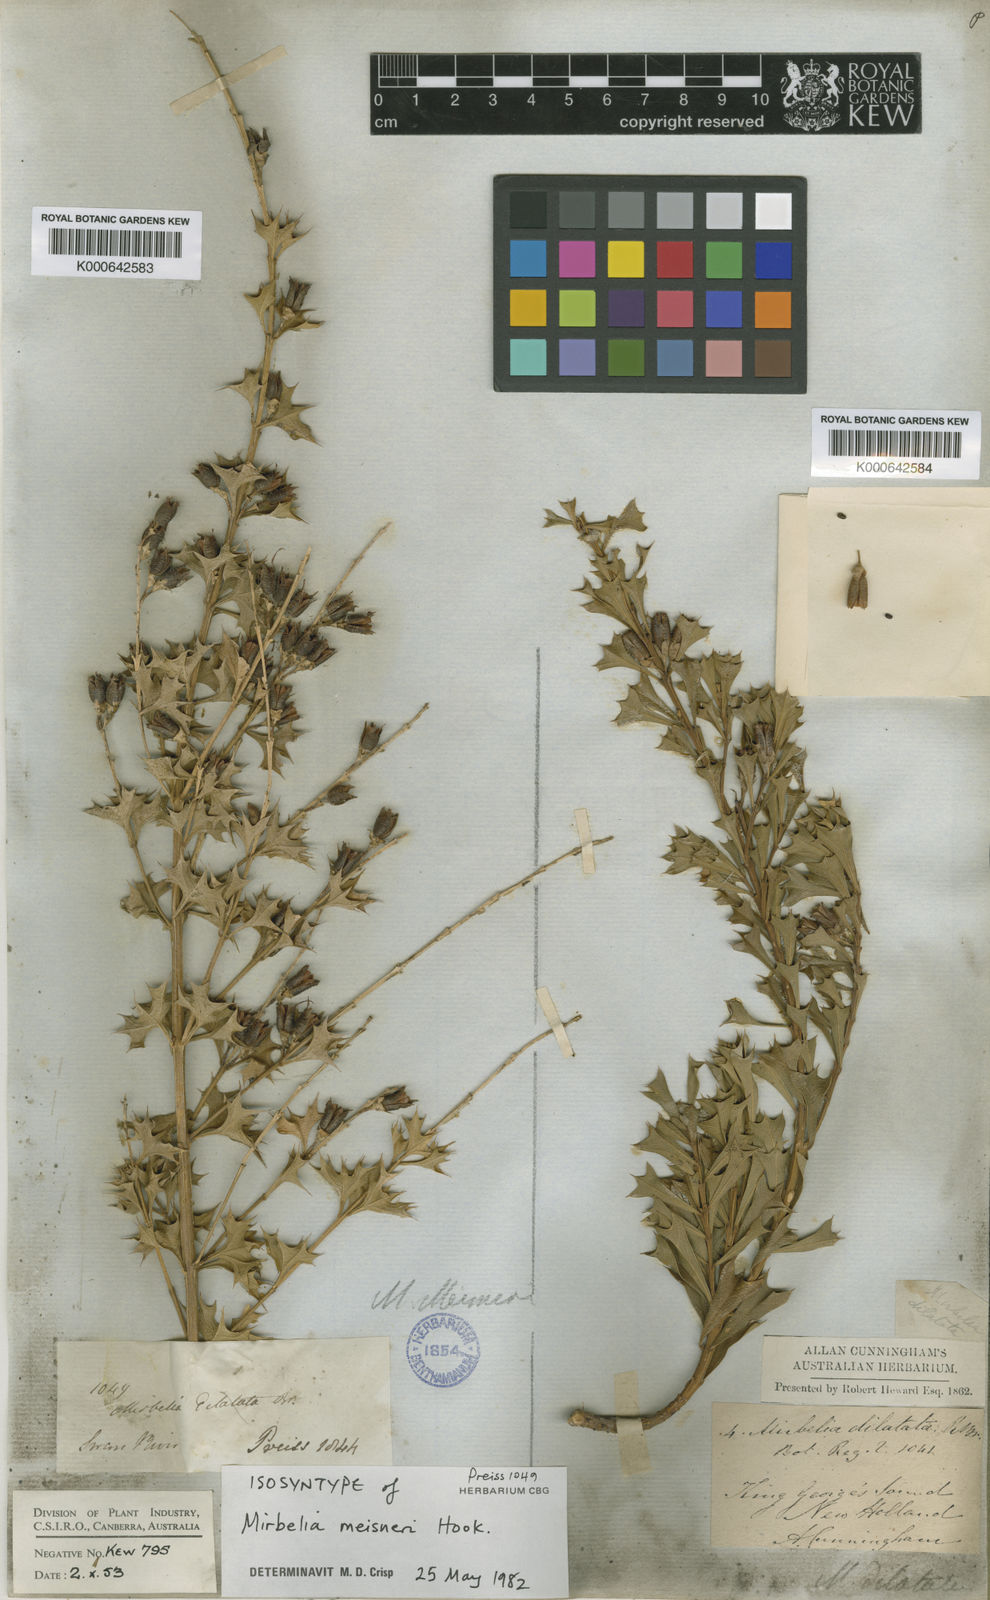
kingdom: Plantae
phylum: Tracheophyta
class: Magnoliopsida
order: Fabales
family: Fabaceae
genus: Mirbelia
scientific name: Mirbelia dilatata
